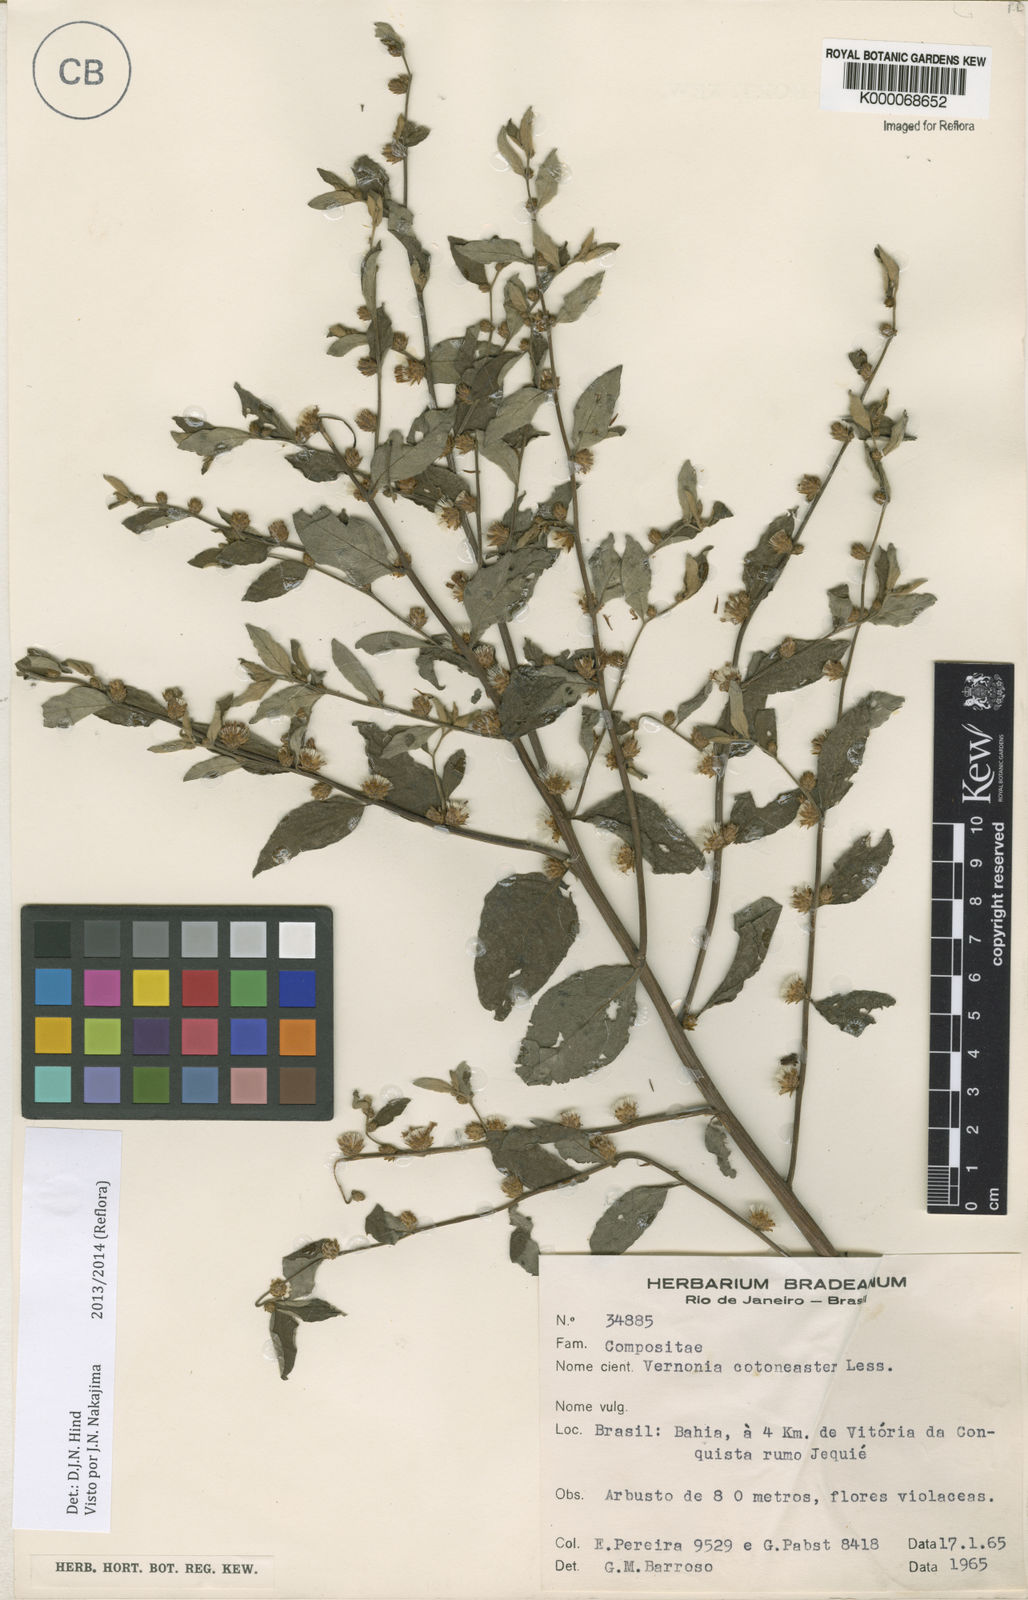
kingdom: Plantae
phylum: Tracheophyta
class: Magnoliopsida
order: Asterales
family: Asteraceae
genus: Lepidaploa
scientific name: Lepidaploa cotoneaster
